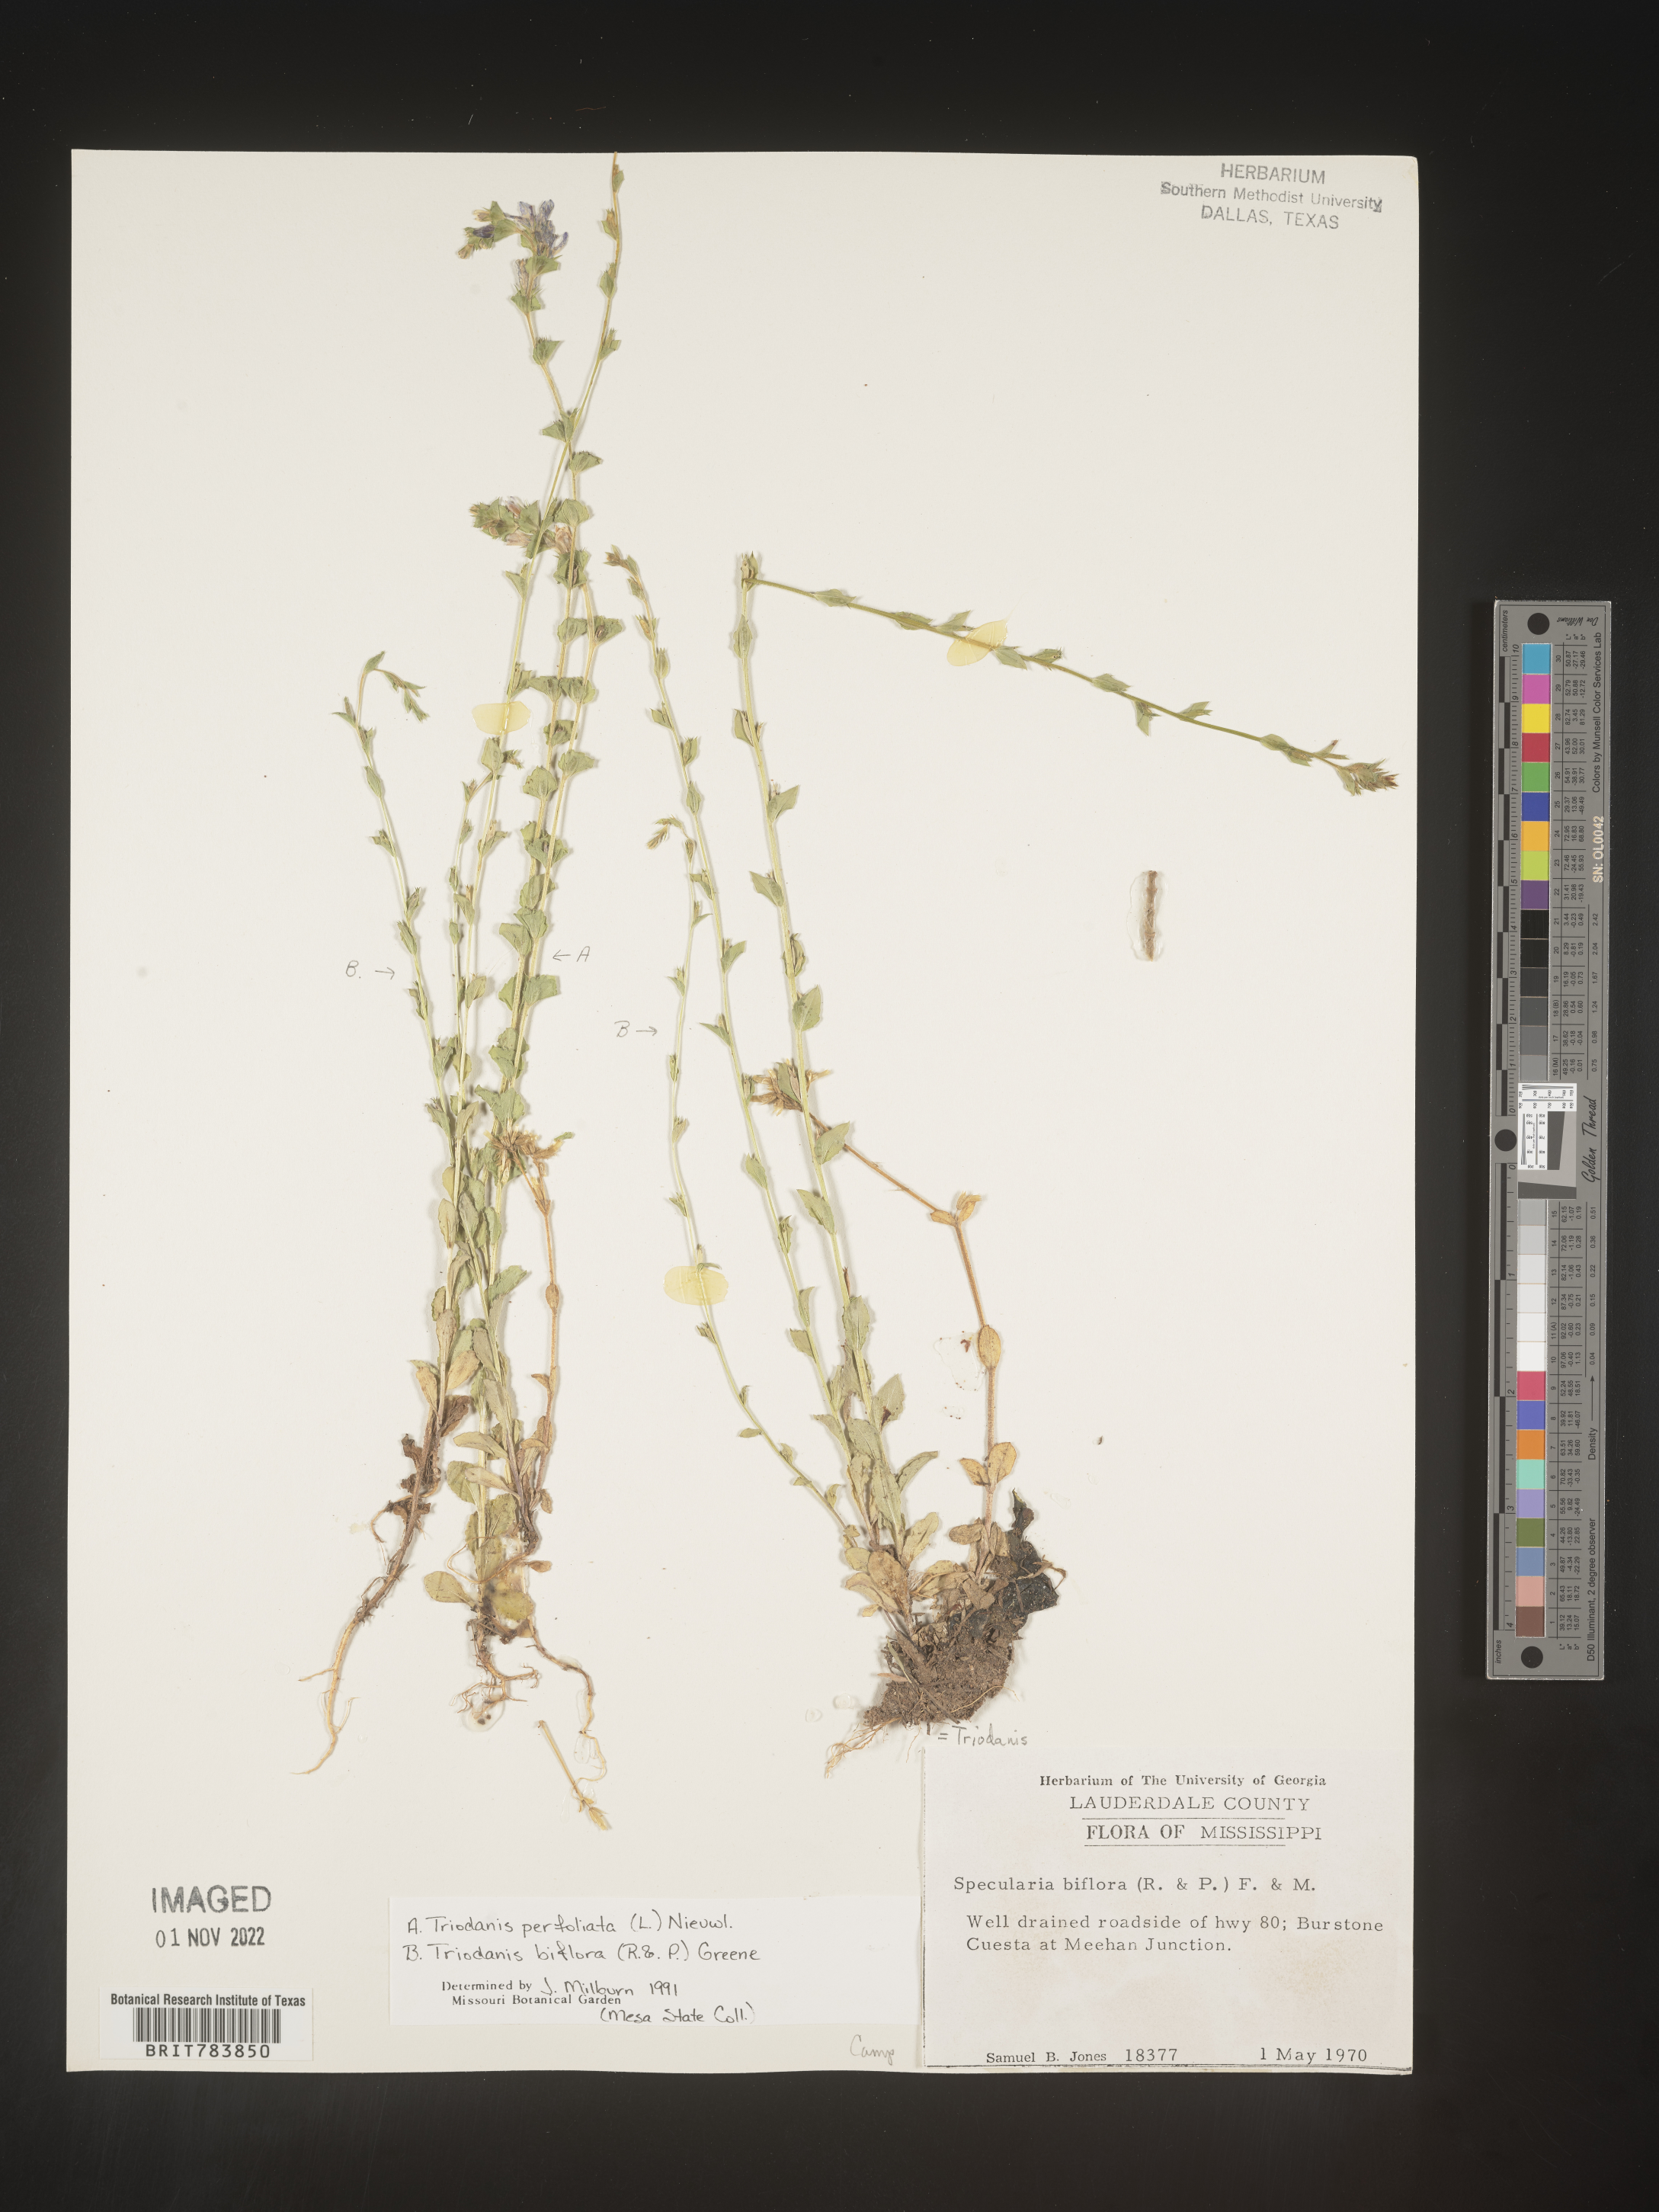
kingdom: Plantae
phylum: Tracheophyta
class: Magnoliopsida
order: Asterales
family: Campanulaceae
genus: Triodanis
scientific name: Triodanis perfoliata
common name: Clasping venus' looking-glass
